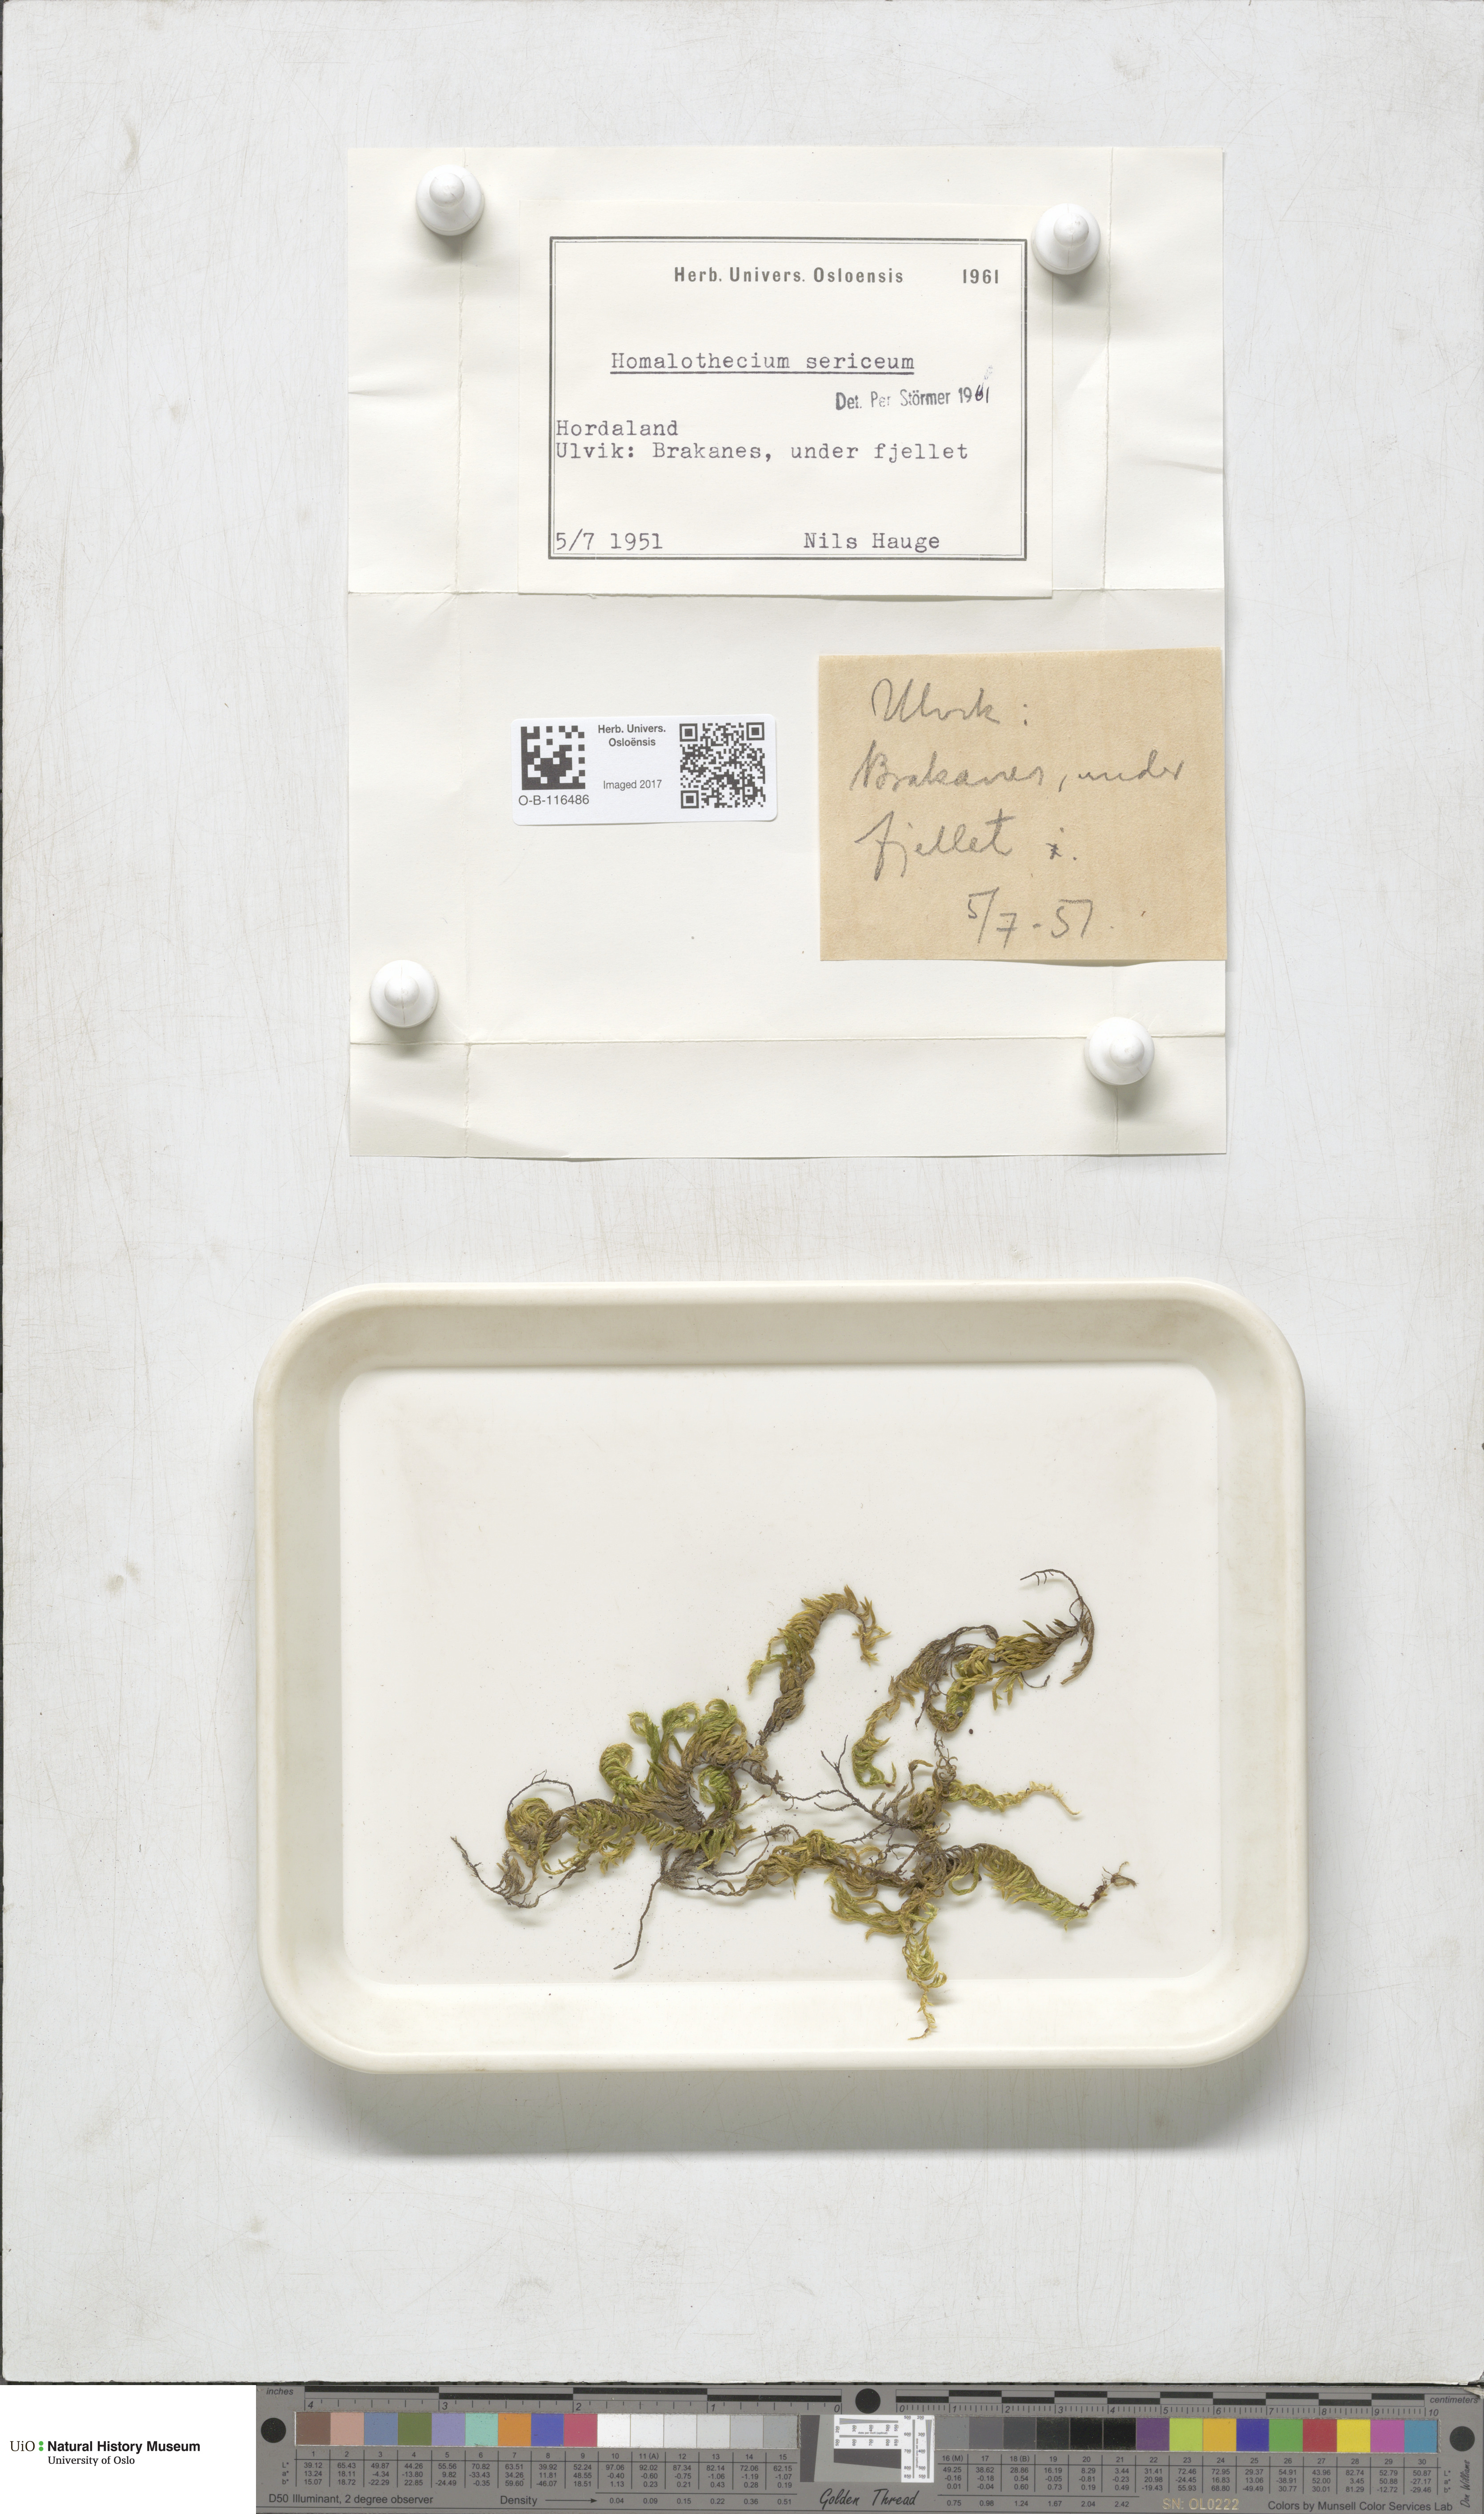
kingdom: Plantae
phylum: Bryophyta
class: Bryopsida
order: Hypnales
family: Brachytheciaceae
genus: Homalothecium
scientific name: Homalothecium sericeum
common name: Silky wall feather-moss
